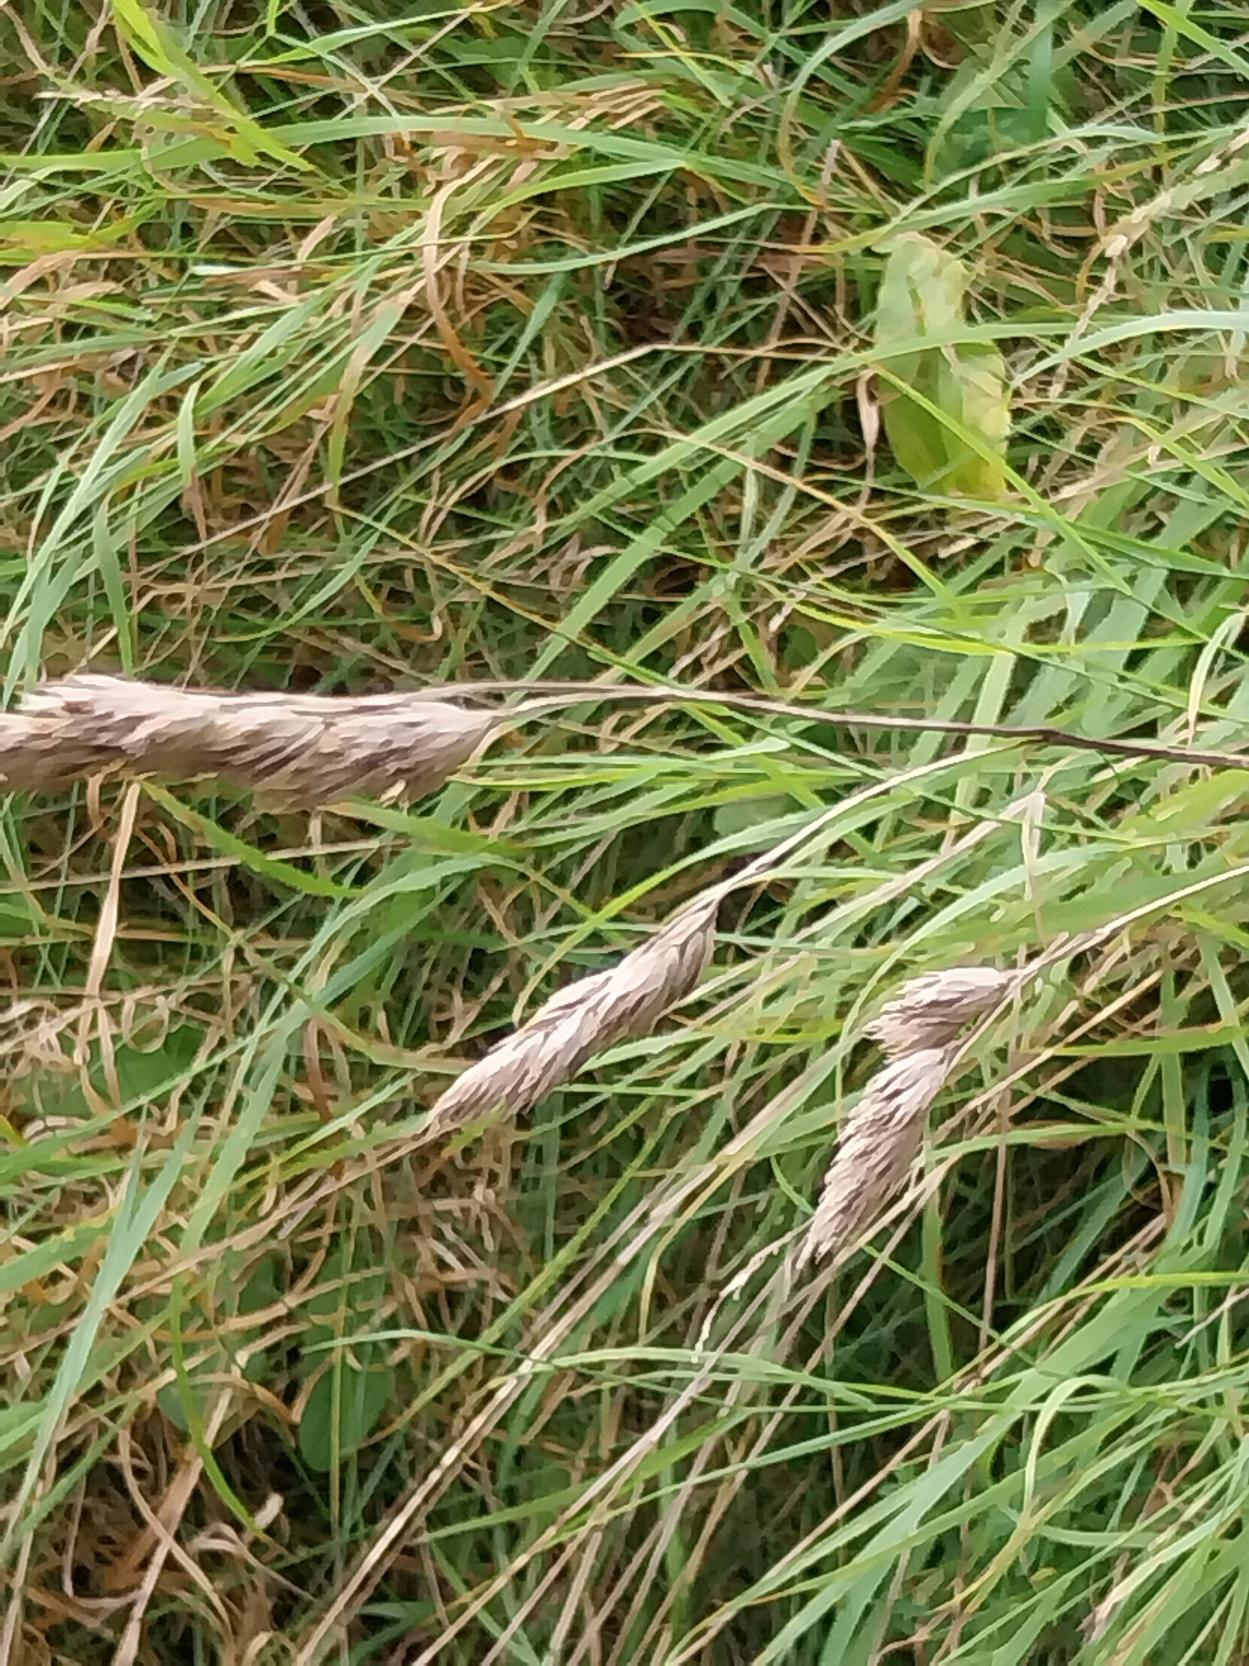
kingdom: Plantae
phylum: Tracheophyta
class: Liliopsida
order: Poales
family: Poaceae
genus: Dactylis
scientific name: Dactylis glomerata
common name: Almindelig hundegræs
